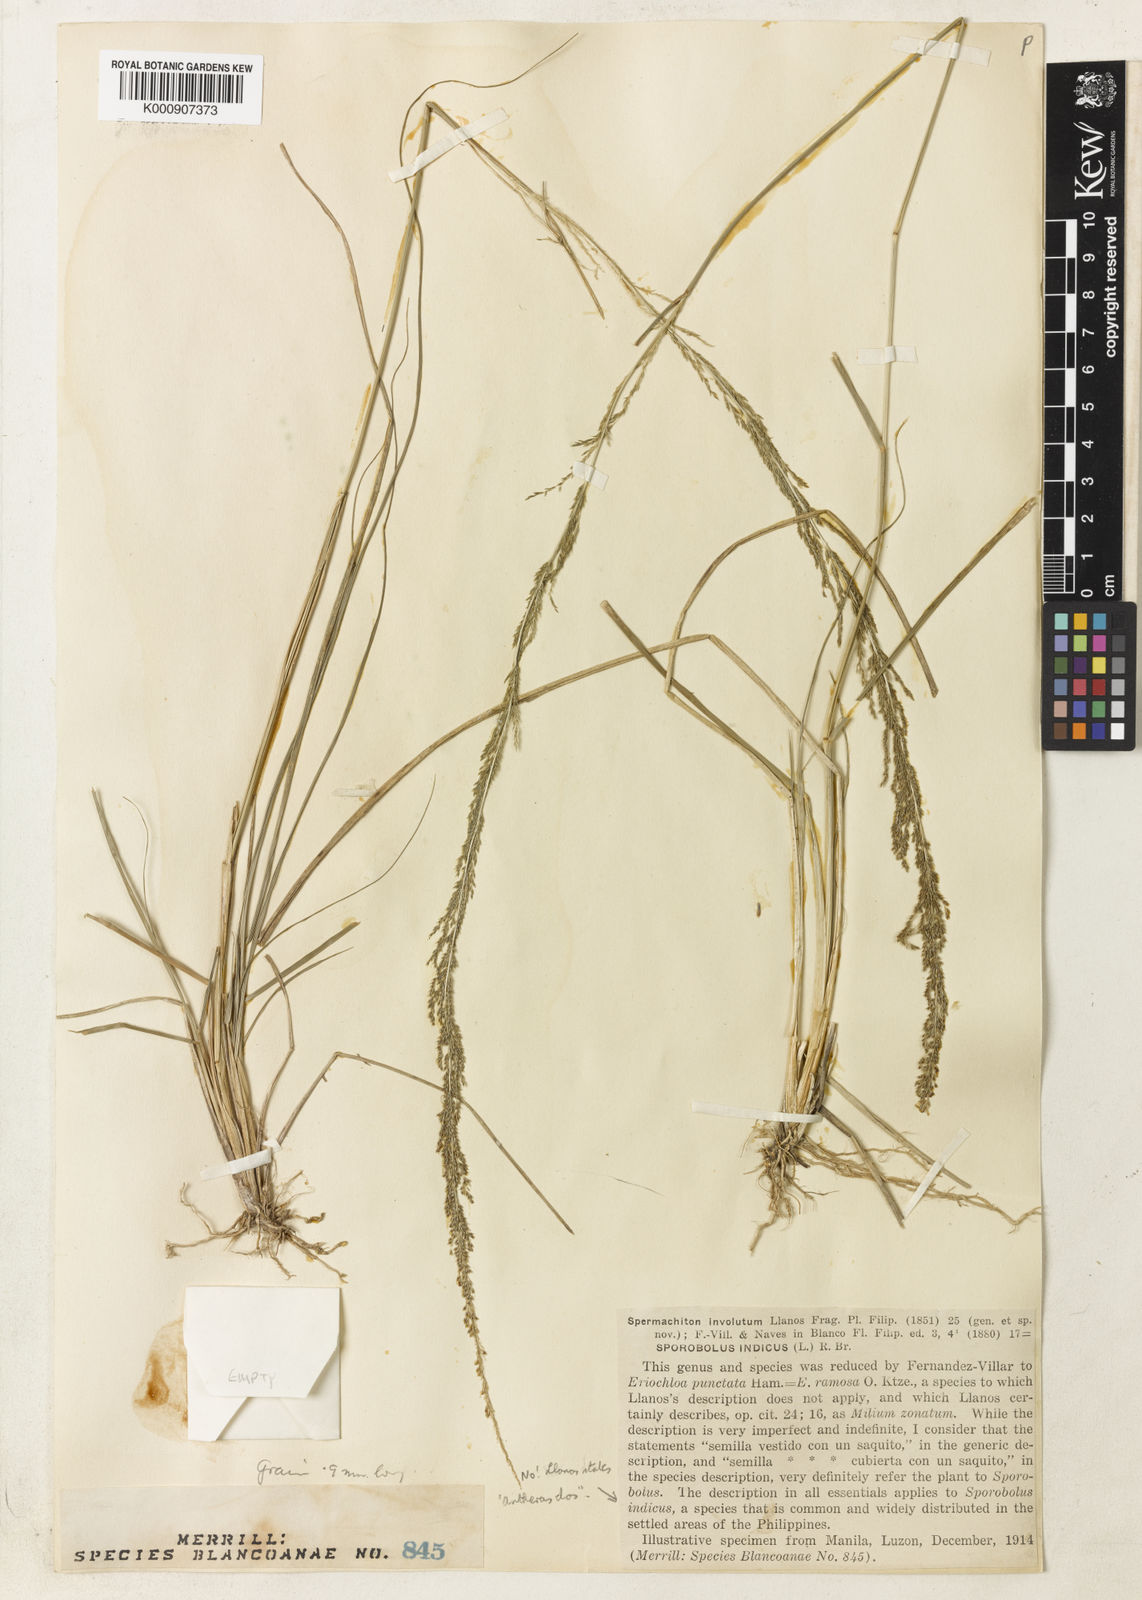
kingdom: Plantae
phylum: Tracheophyta
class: Liliopsida
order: Poales
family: Poaceae
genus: Sporobolus
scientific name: Sporobolus fertilis
